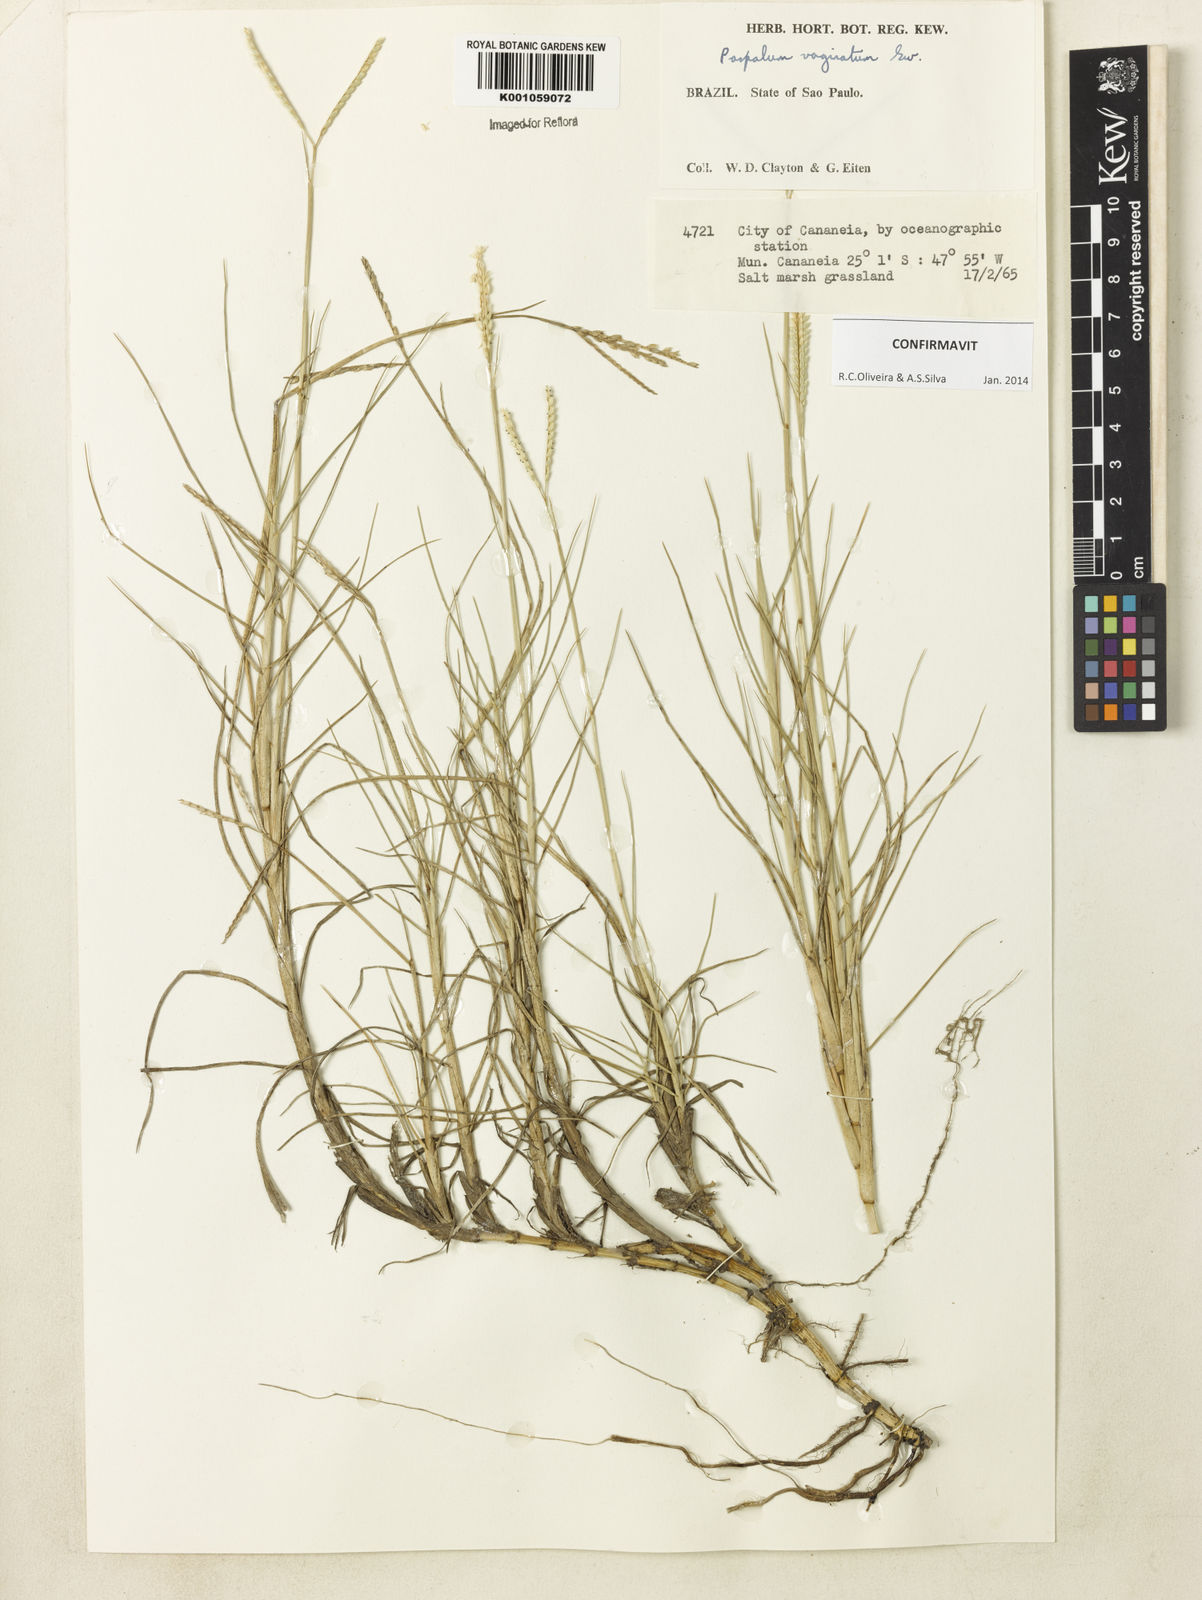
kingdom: Plantae
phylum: Tracheophyta
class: Liliopsida
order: Poales
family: Poaceae
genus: Paspalum
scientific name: Paspalum vaginatum
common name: Seashore paspalum
